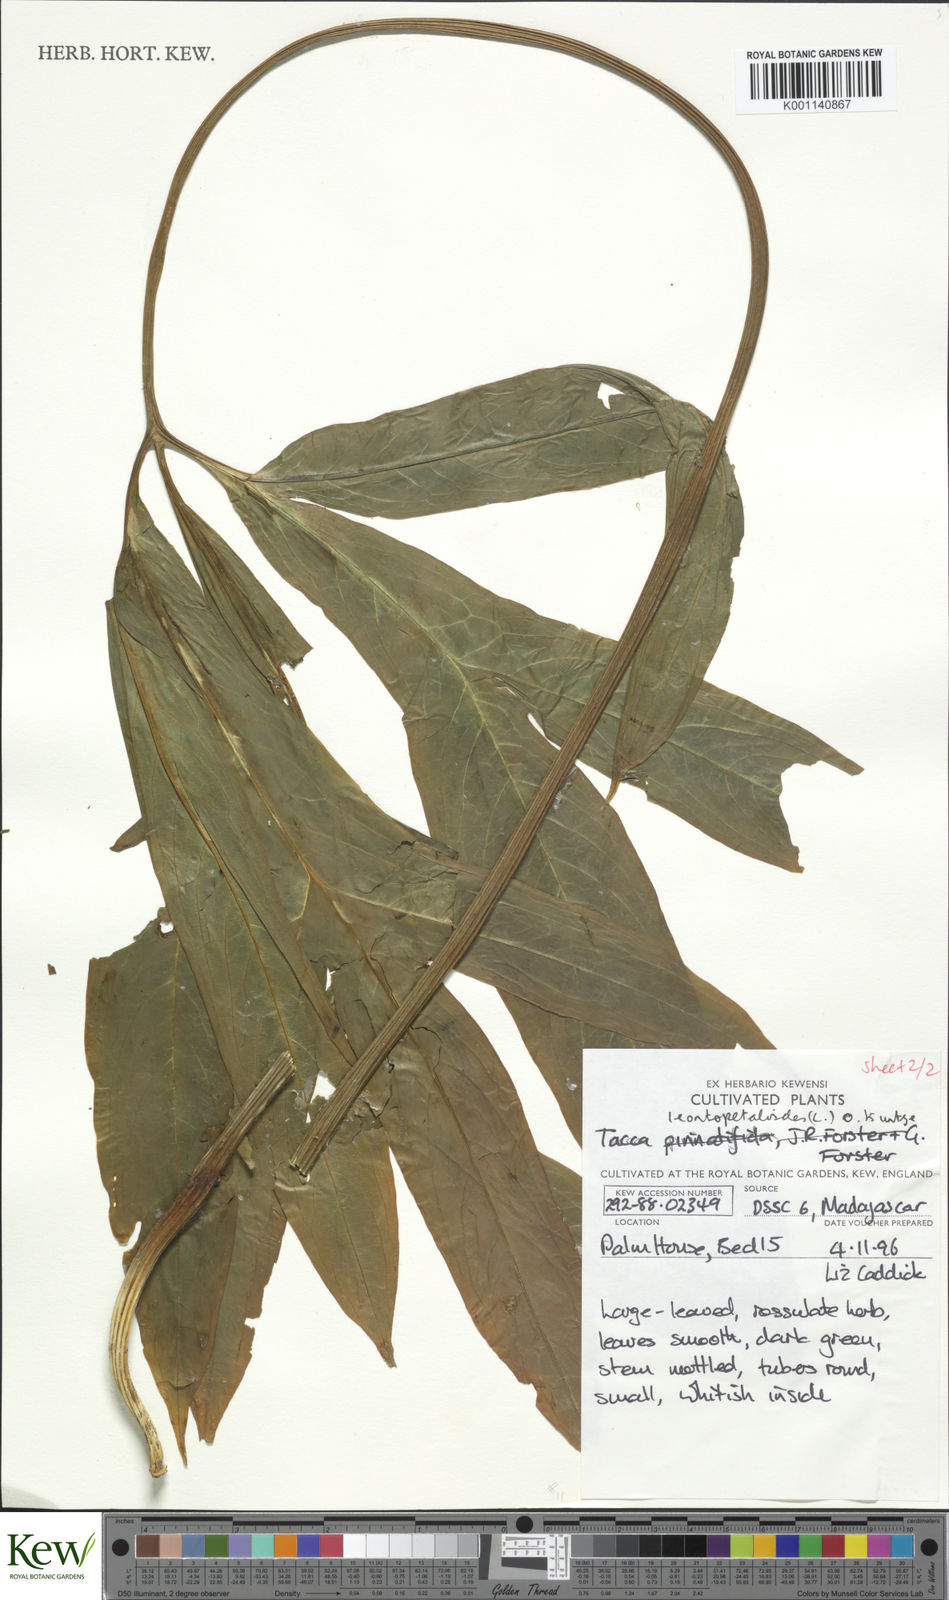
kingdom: Plantae
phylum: Tracheophyta
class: Liliopsida
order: Dioscoreales
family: Dioscoreaceae
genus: Tacca
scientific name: Tacca leontopetaloides
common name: Arrowroot
